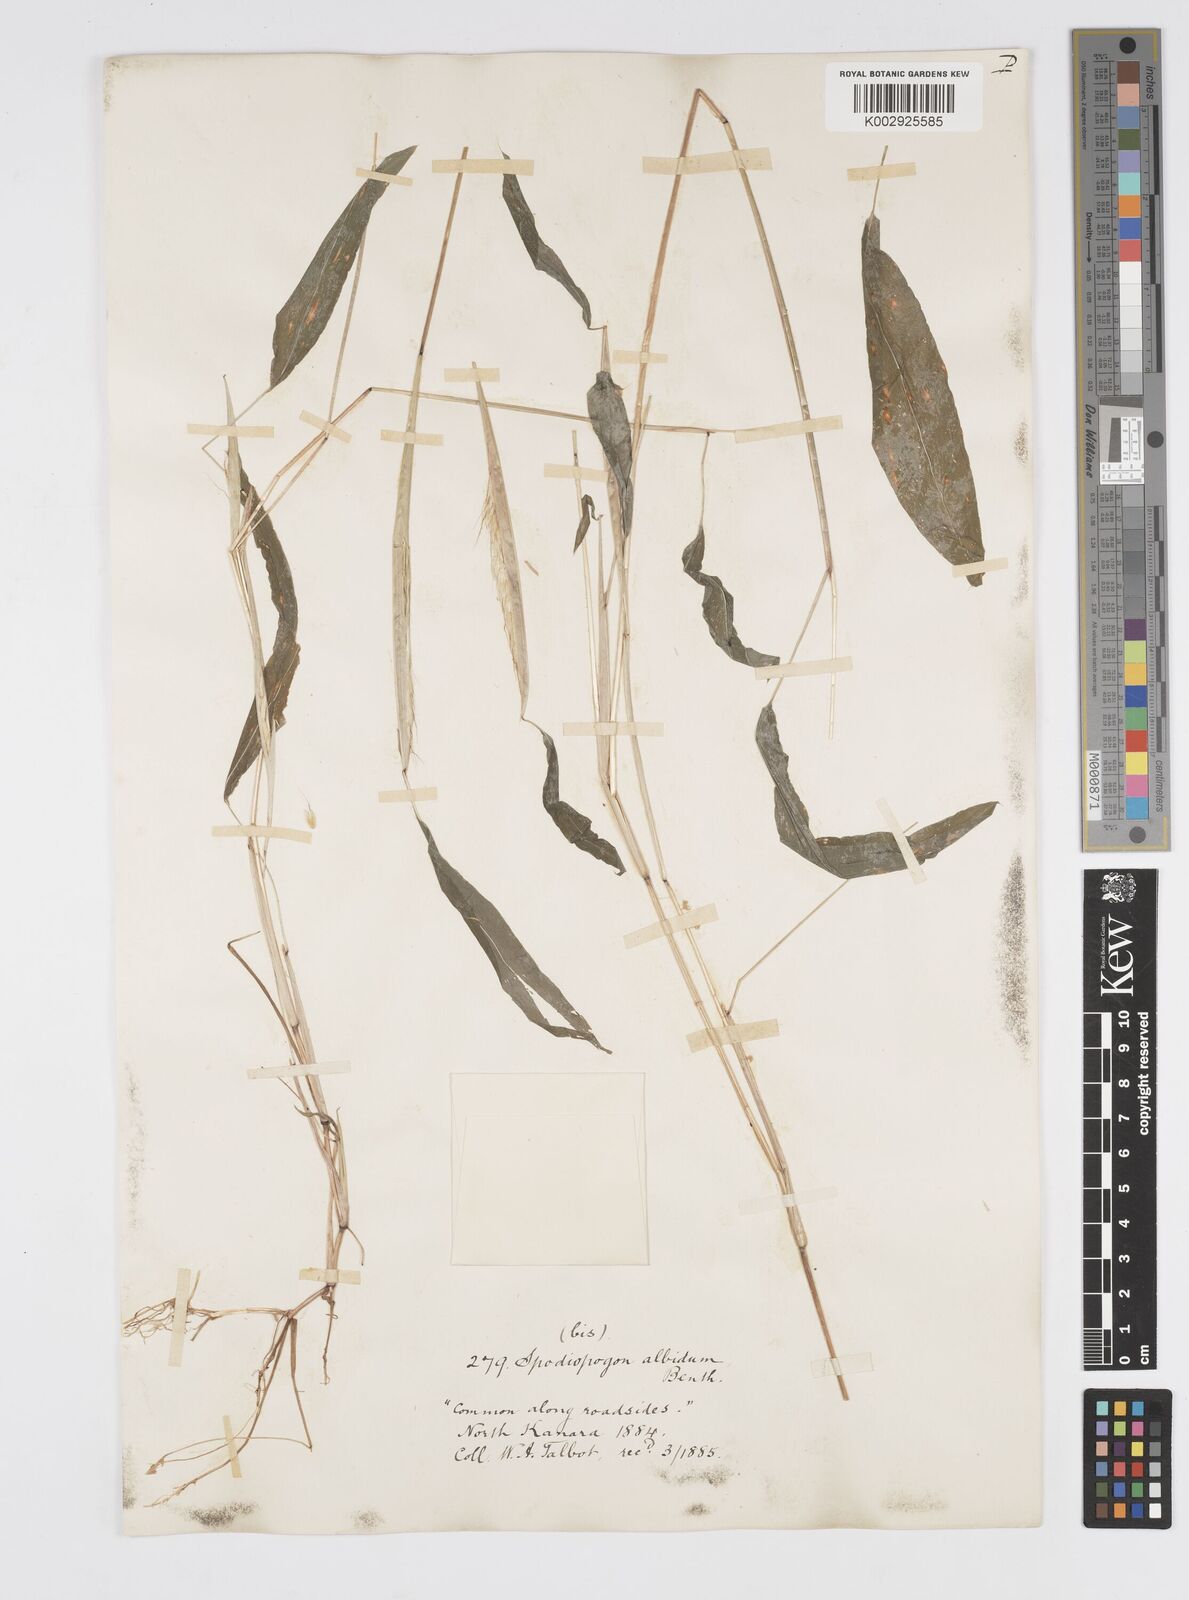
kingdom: Plantae
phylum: Tracheophyta
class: Liliopsida
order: Poales
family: Poaceae
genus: Spodiopogon
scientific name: Spodiopogon rhizophorus
